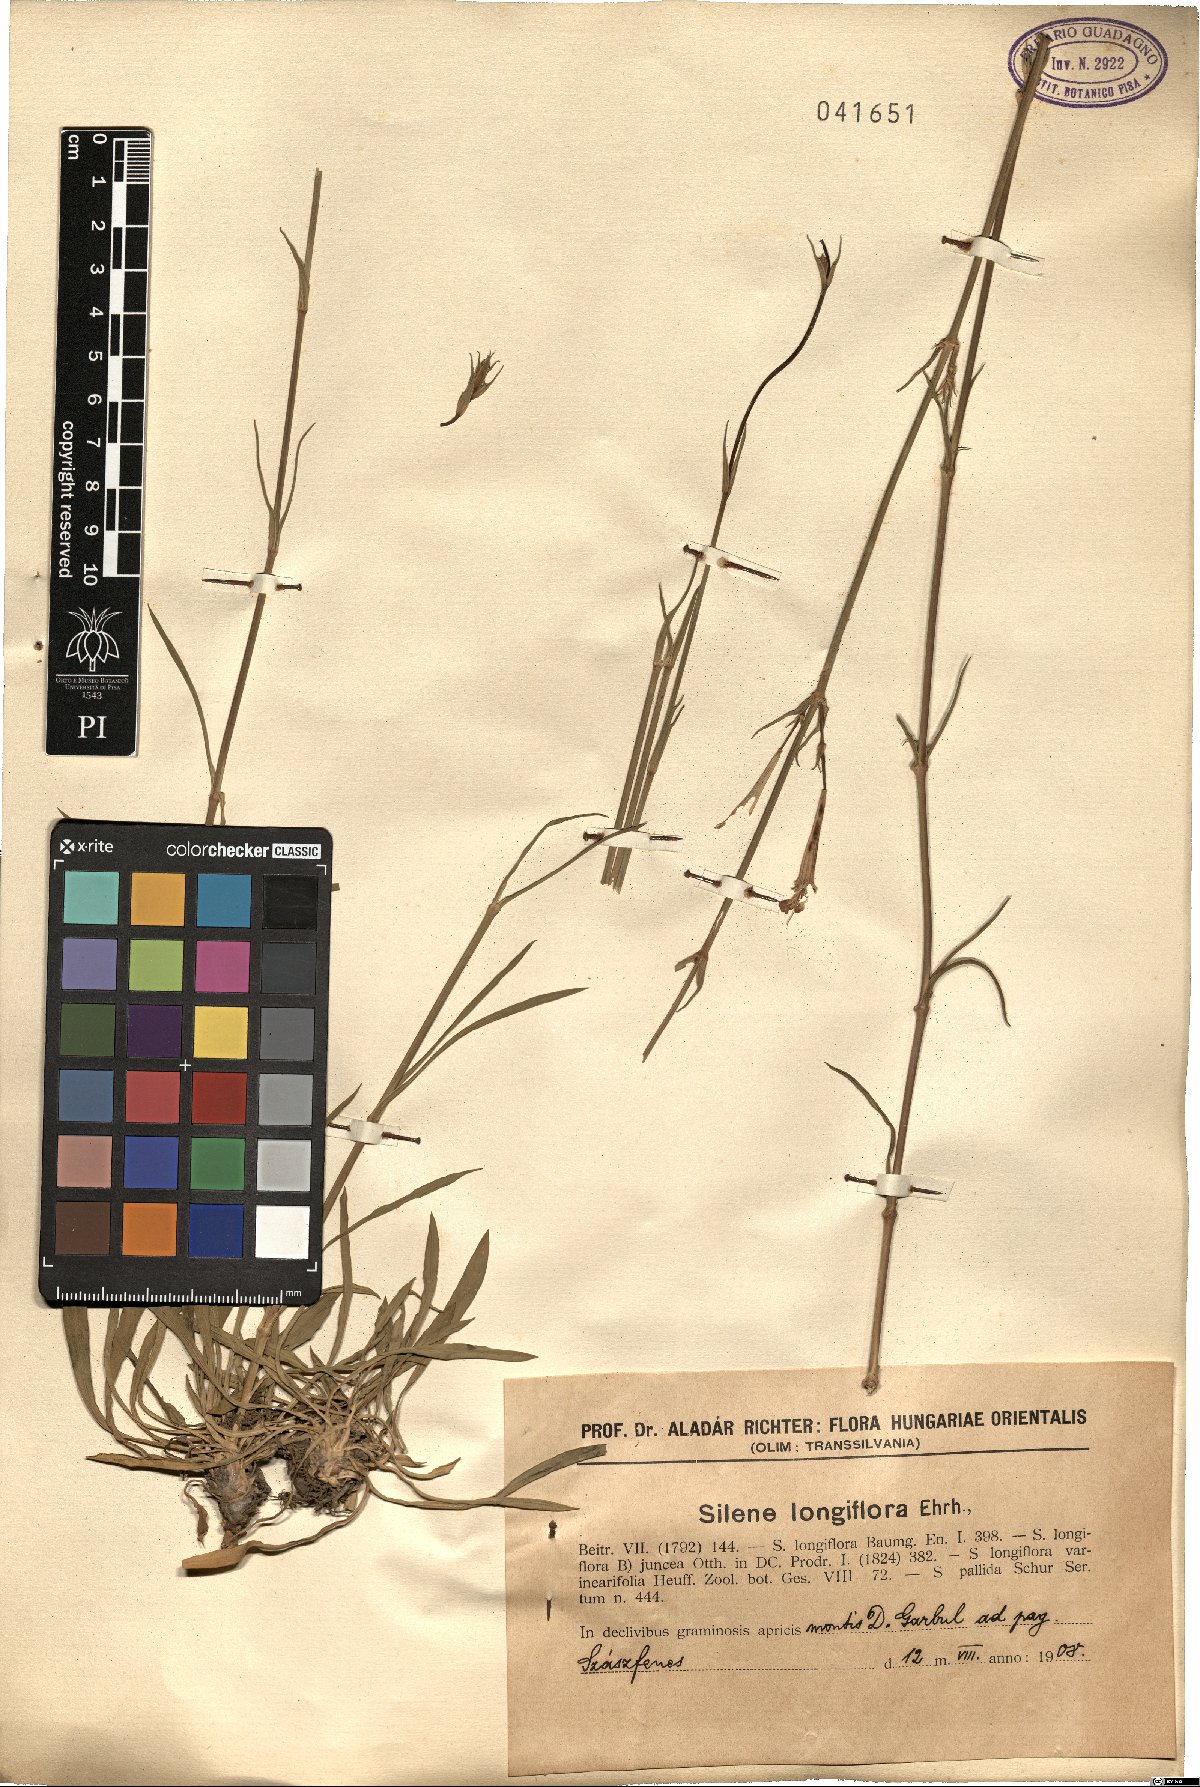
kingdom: Plantae
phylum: Tracheophyta
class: Magnoliopsida
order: Caryophyllales
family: Caryophyllaceae
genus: Silene
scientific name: Silene bupleuroides
